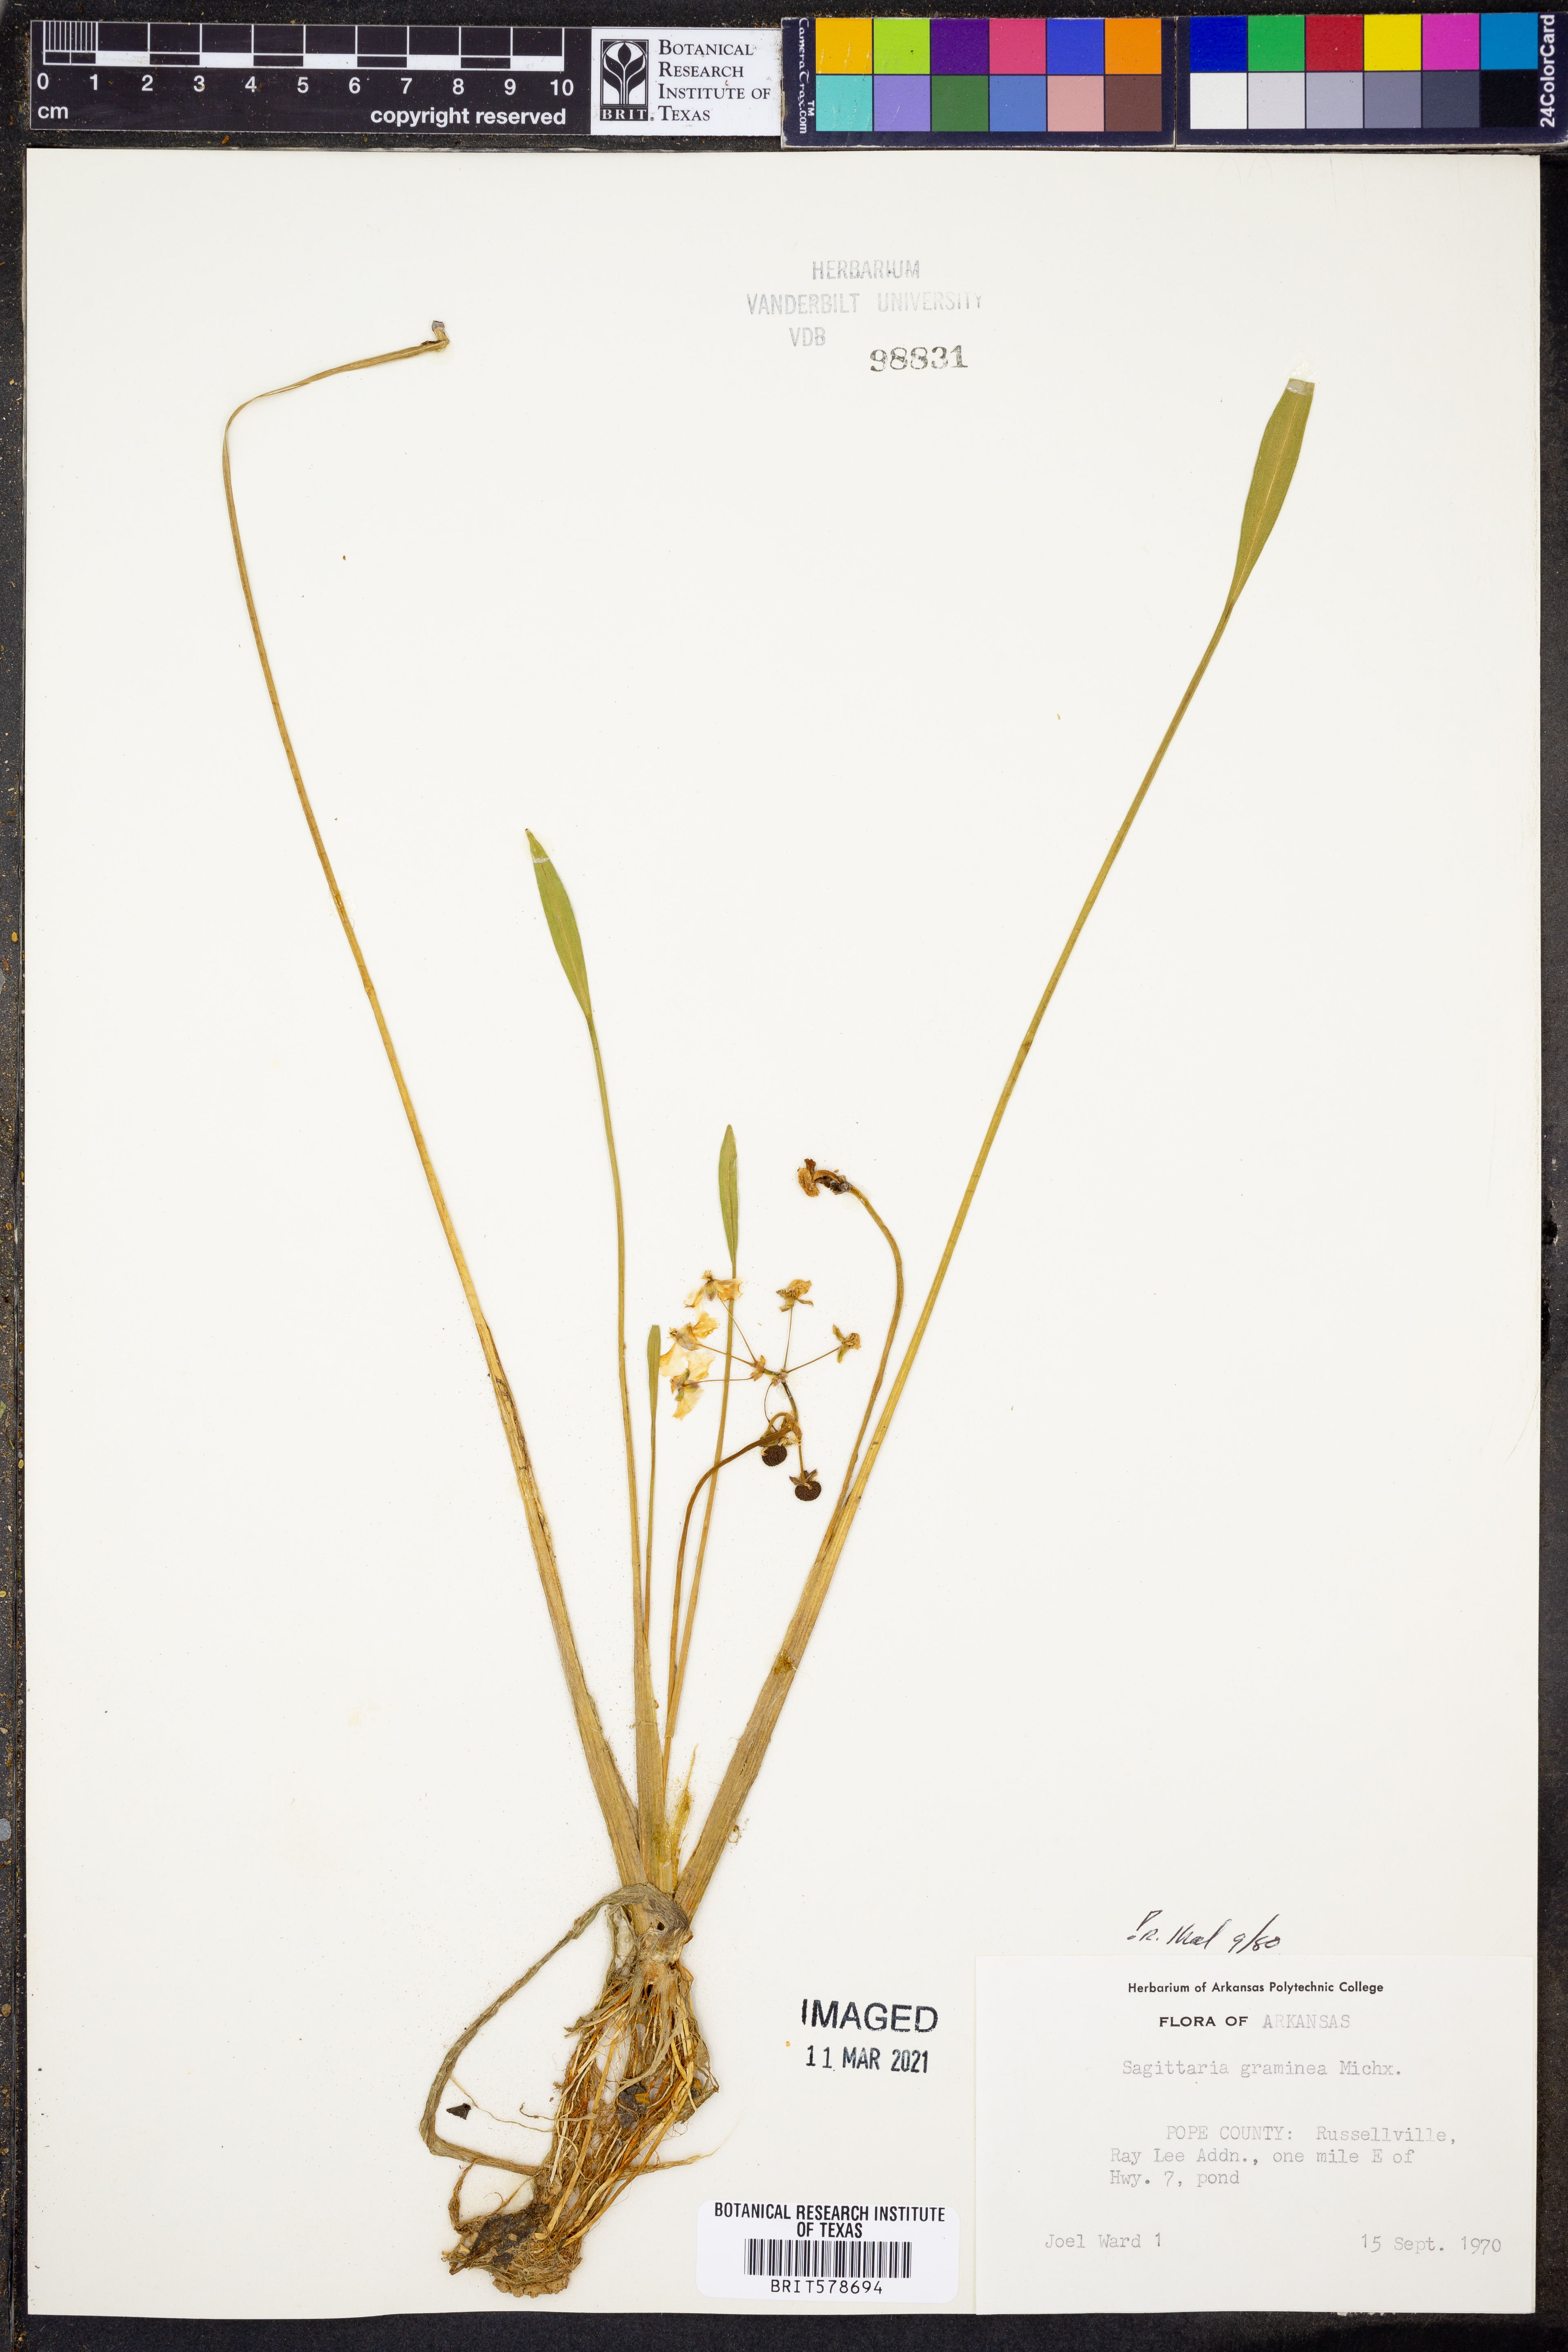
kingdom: Plantae
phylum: Tracheophyta
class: Liliopsida
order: Alismatales
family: Alismataceae
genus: Sagittaria
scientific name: Sagittaria graminea
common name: Grass-leaved arrowhead
